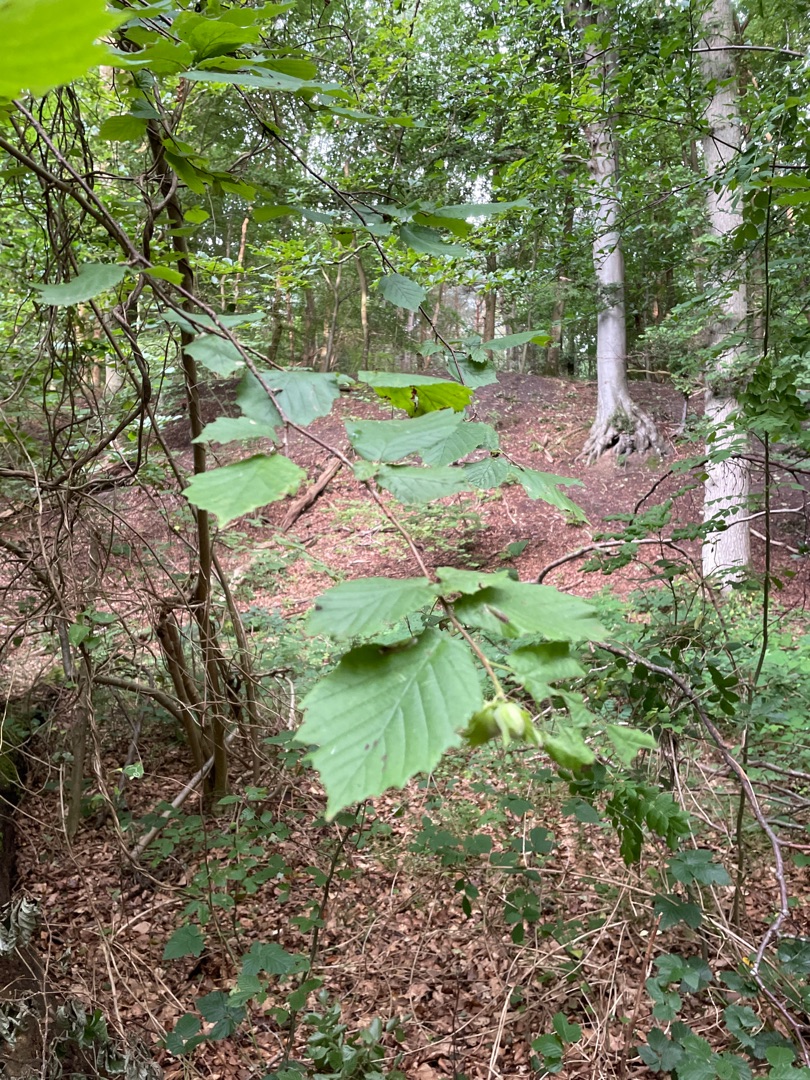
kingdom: Plantae
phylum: Tracheophyta
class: Magnoliopsida
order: Fagales
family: Betulaceae
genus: Corylus
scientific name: Corylus avellana
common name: Hassel
